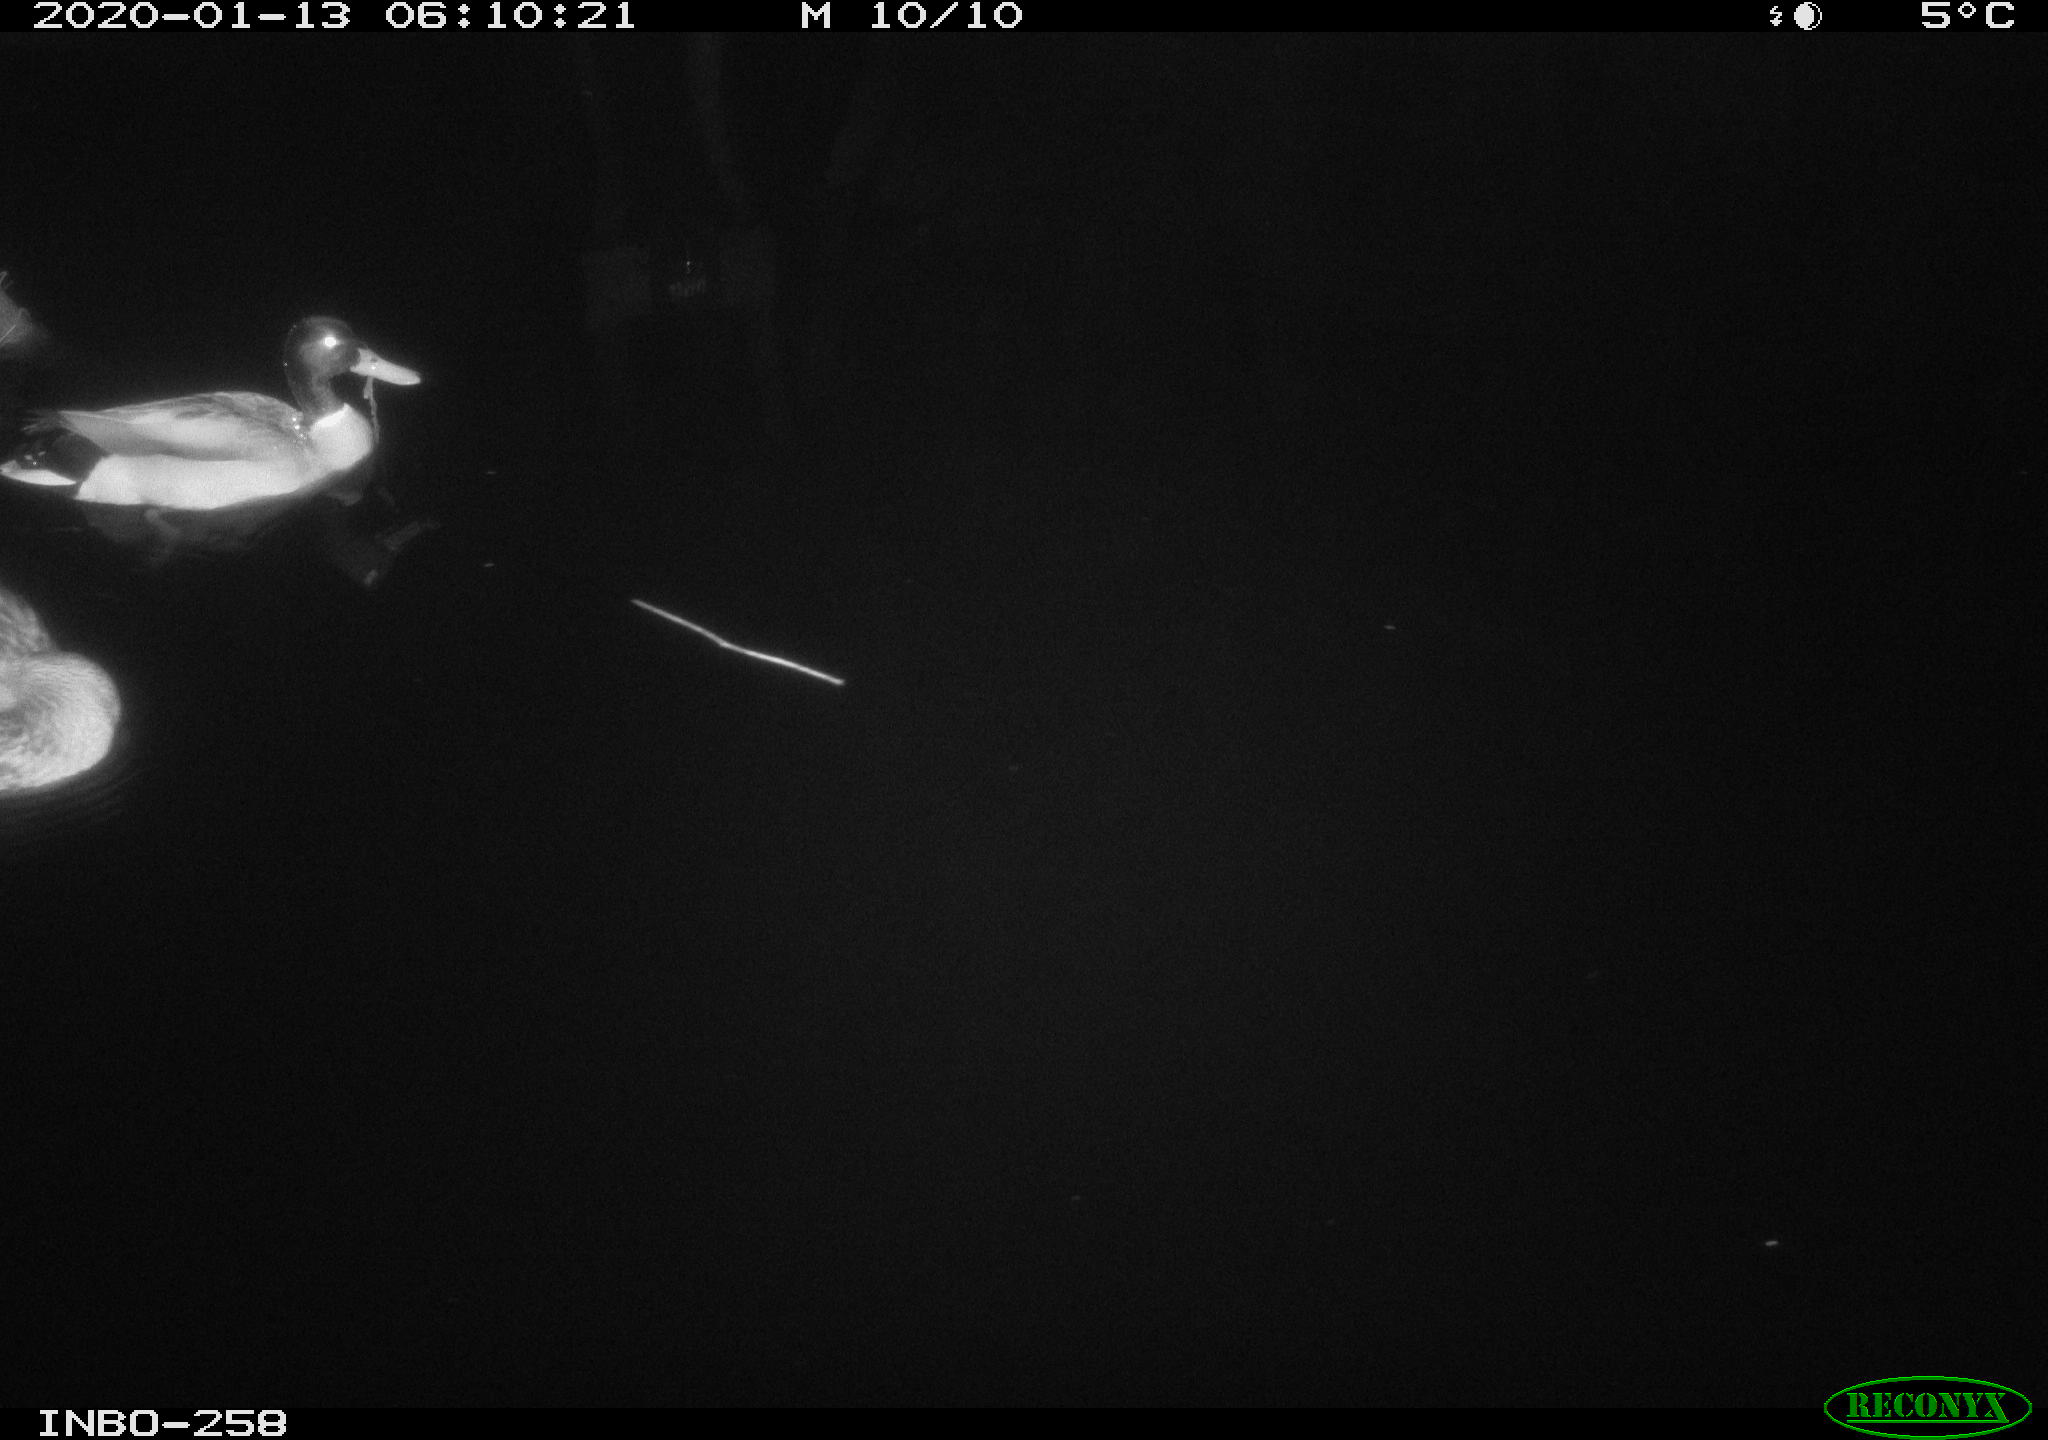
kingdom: Animalia
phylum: Chordata
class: Aves
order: Anseriformes
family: Anatidae
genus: Anas
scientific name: Anas platyrhynchos
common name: Mallard
